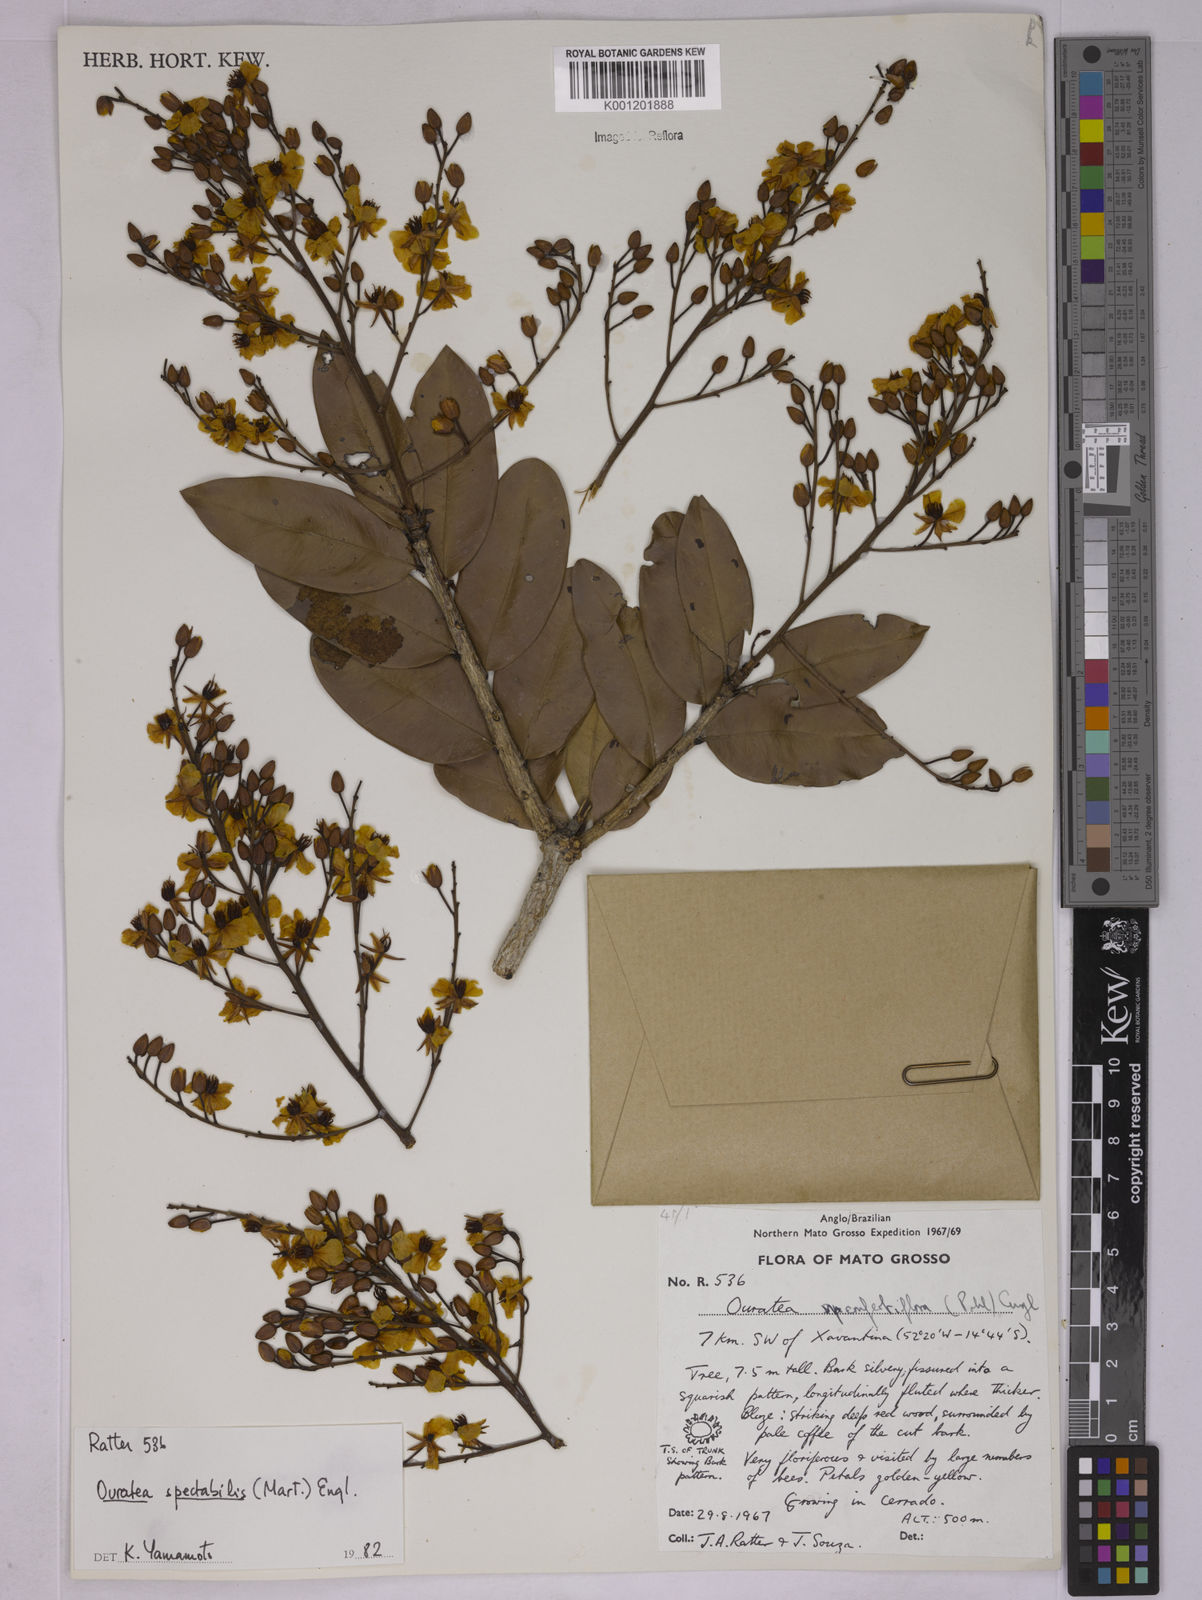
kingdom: Plantae
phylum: Tracheophyta
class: Magnoliopsida
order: Malpighiales
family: Ochnaceae
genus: Ouratea
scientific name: Ouratea spectabilis
